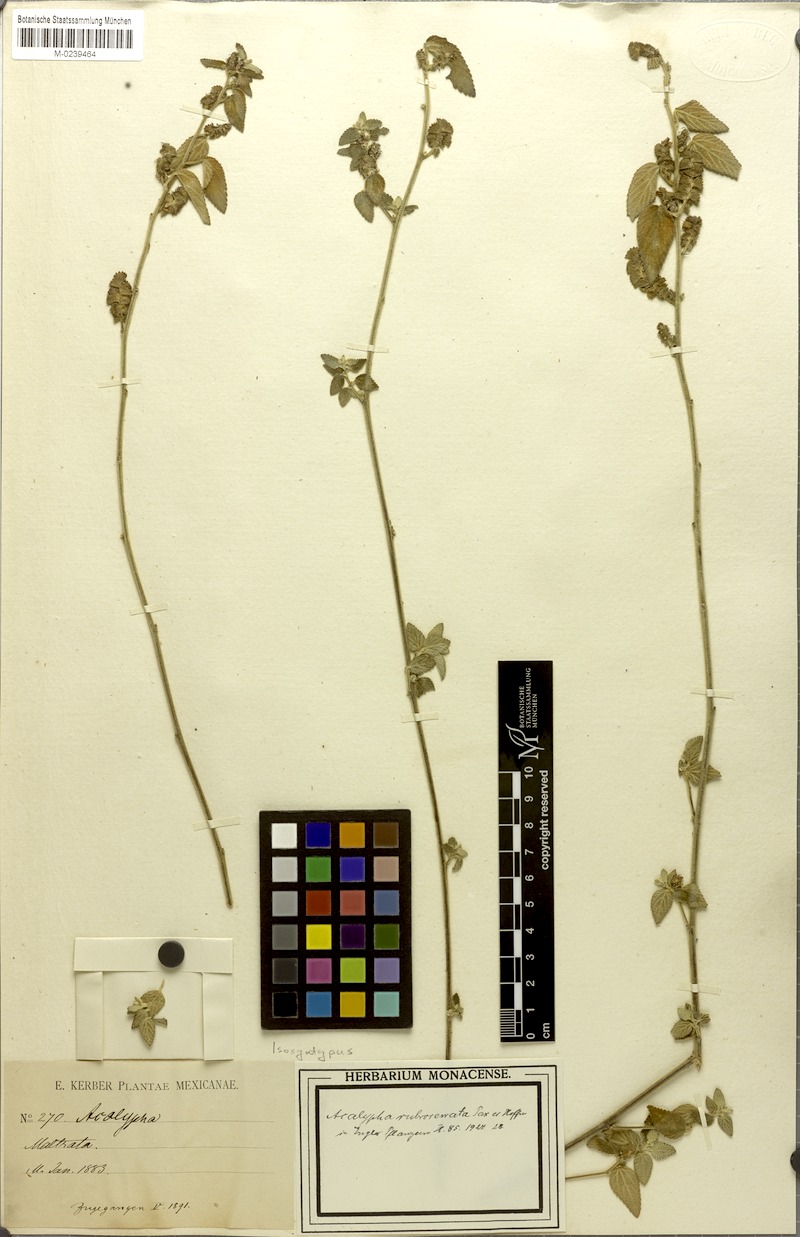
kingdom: Plantae
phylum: Tracheophyta
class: Magnoliopsida
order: Malpighiales
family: Euphorbiaceae
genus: Acalypha
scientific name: Acalypha rubroserrata
